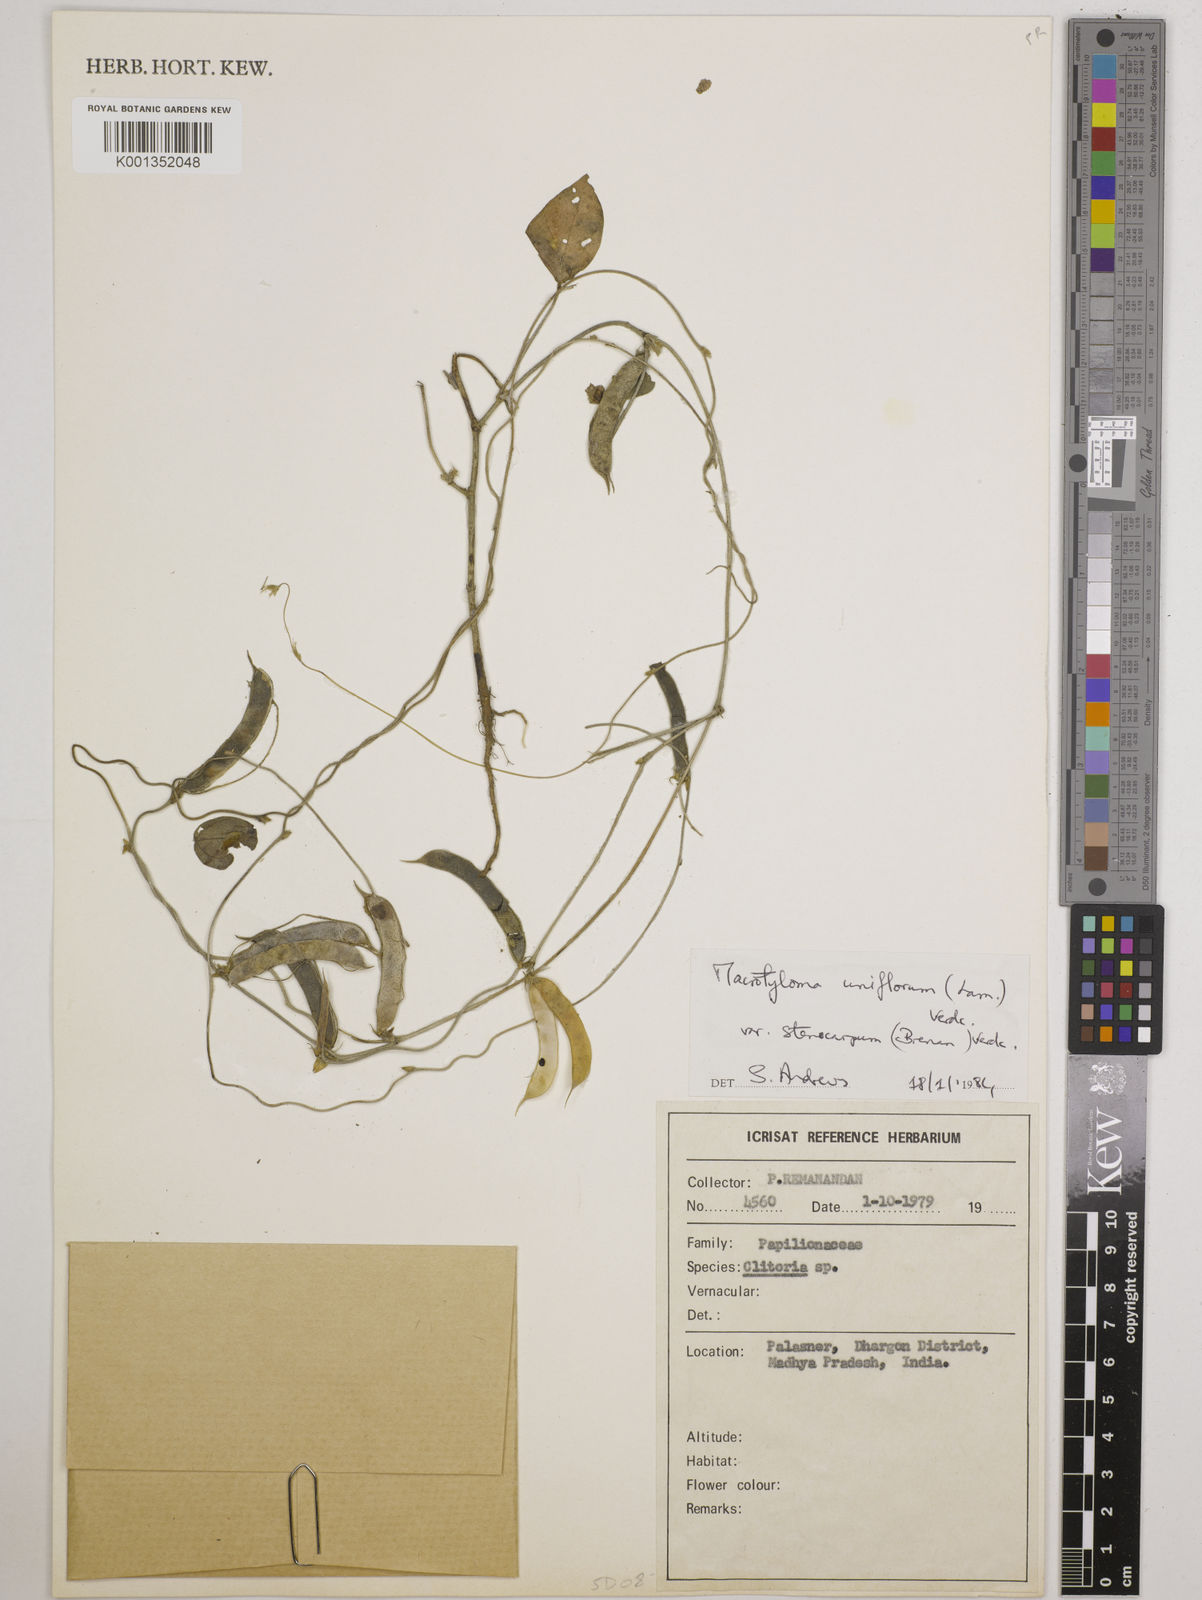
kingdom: Plantae
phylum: Tracheophyta
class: Magnoliopsida
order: Fabales
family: Fabaceae
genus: Macrotyloma
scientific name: Macrotyloma
